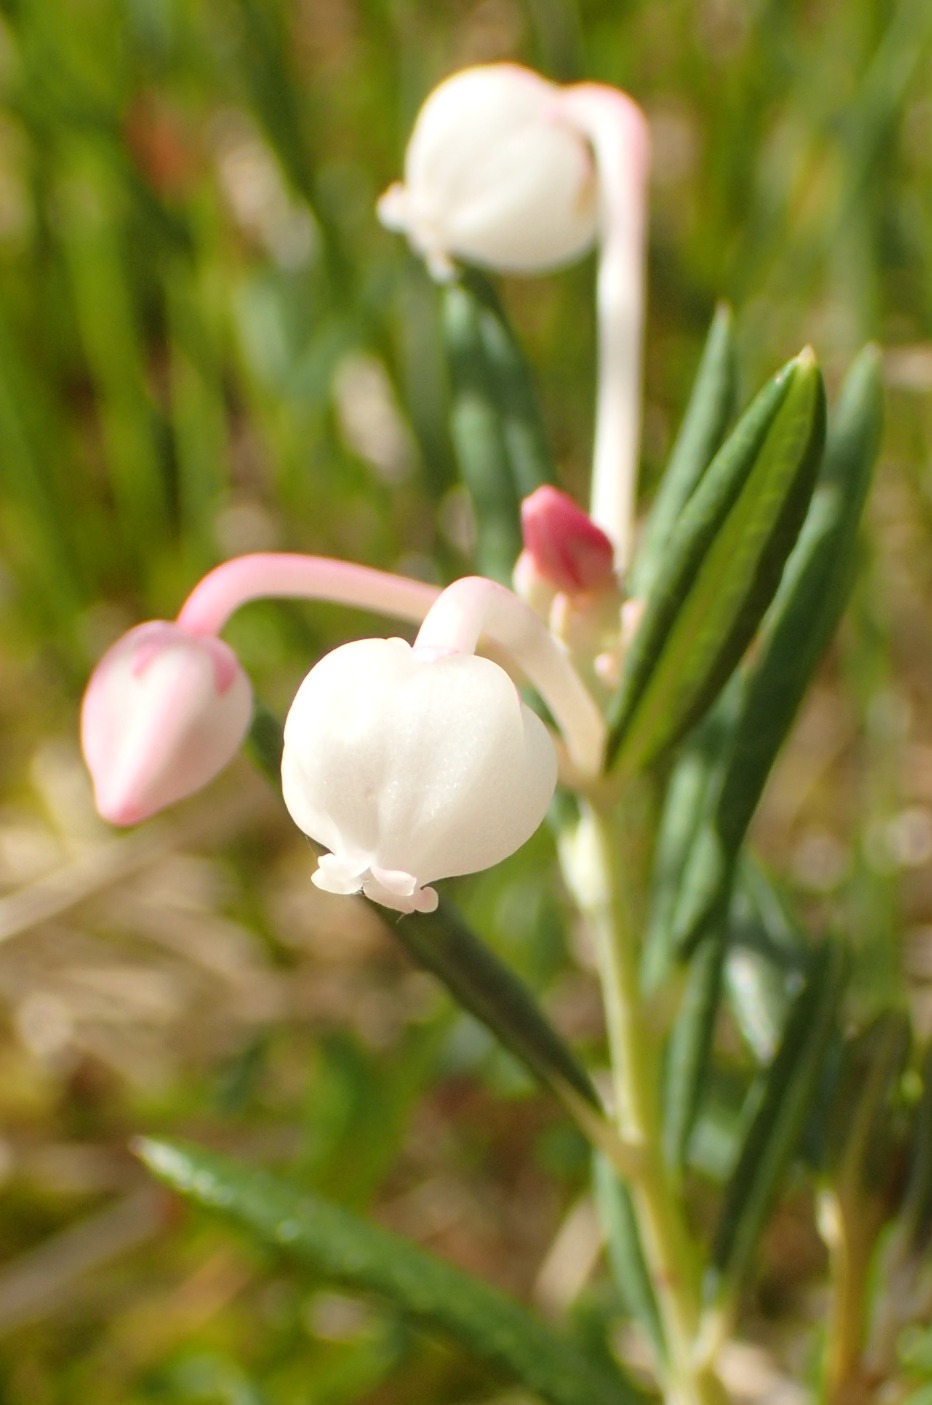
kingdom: Plantae
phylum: Tracheophyta
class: Magnoliopsida
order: Ericales
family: Ericaceae
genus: Andromeda
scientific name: Andromeda polifolia
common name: Rosmarinlyng
